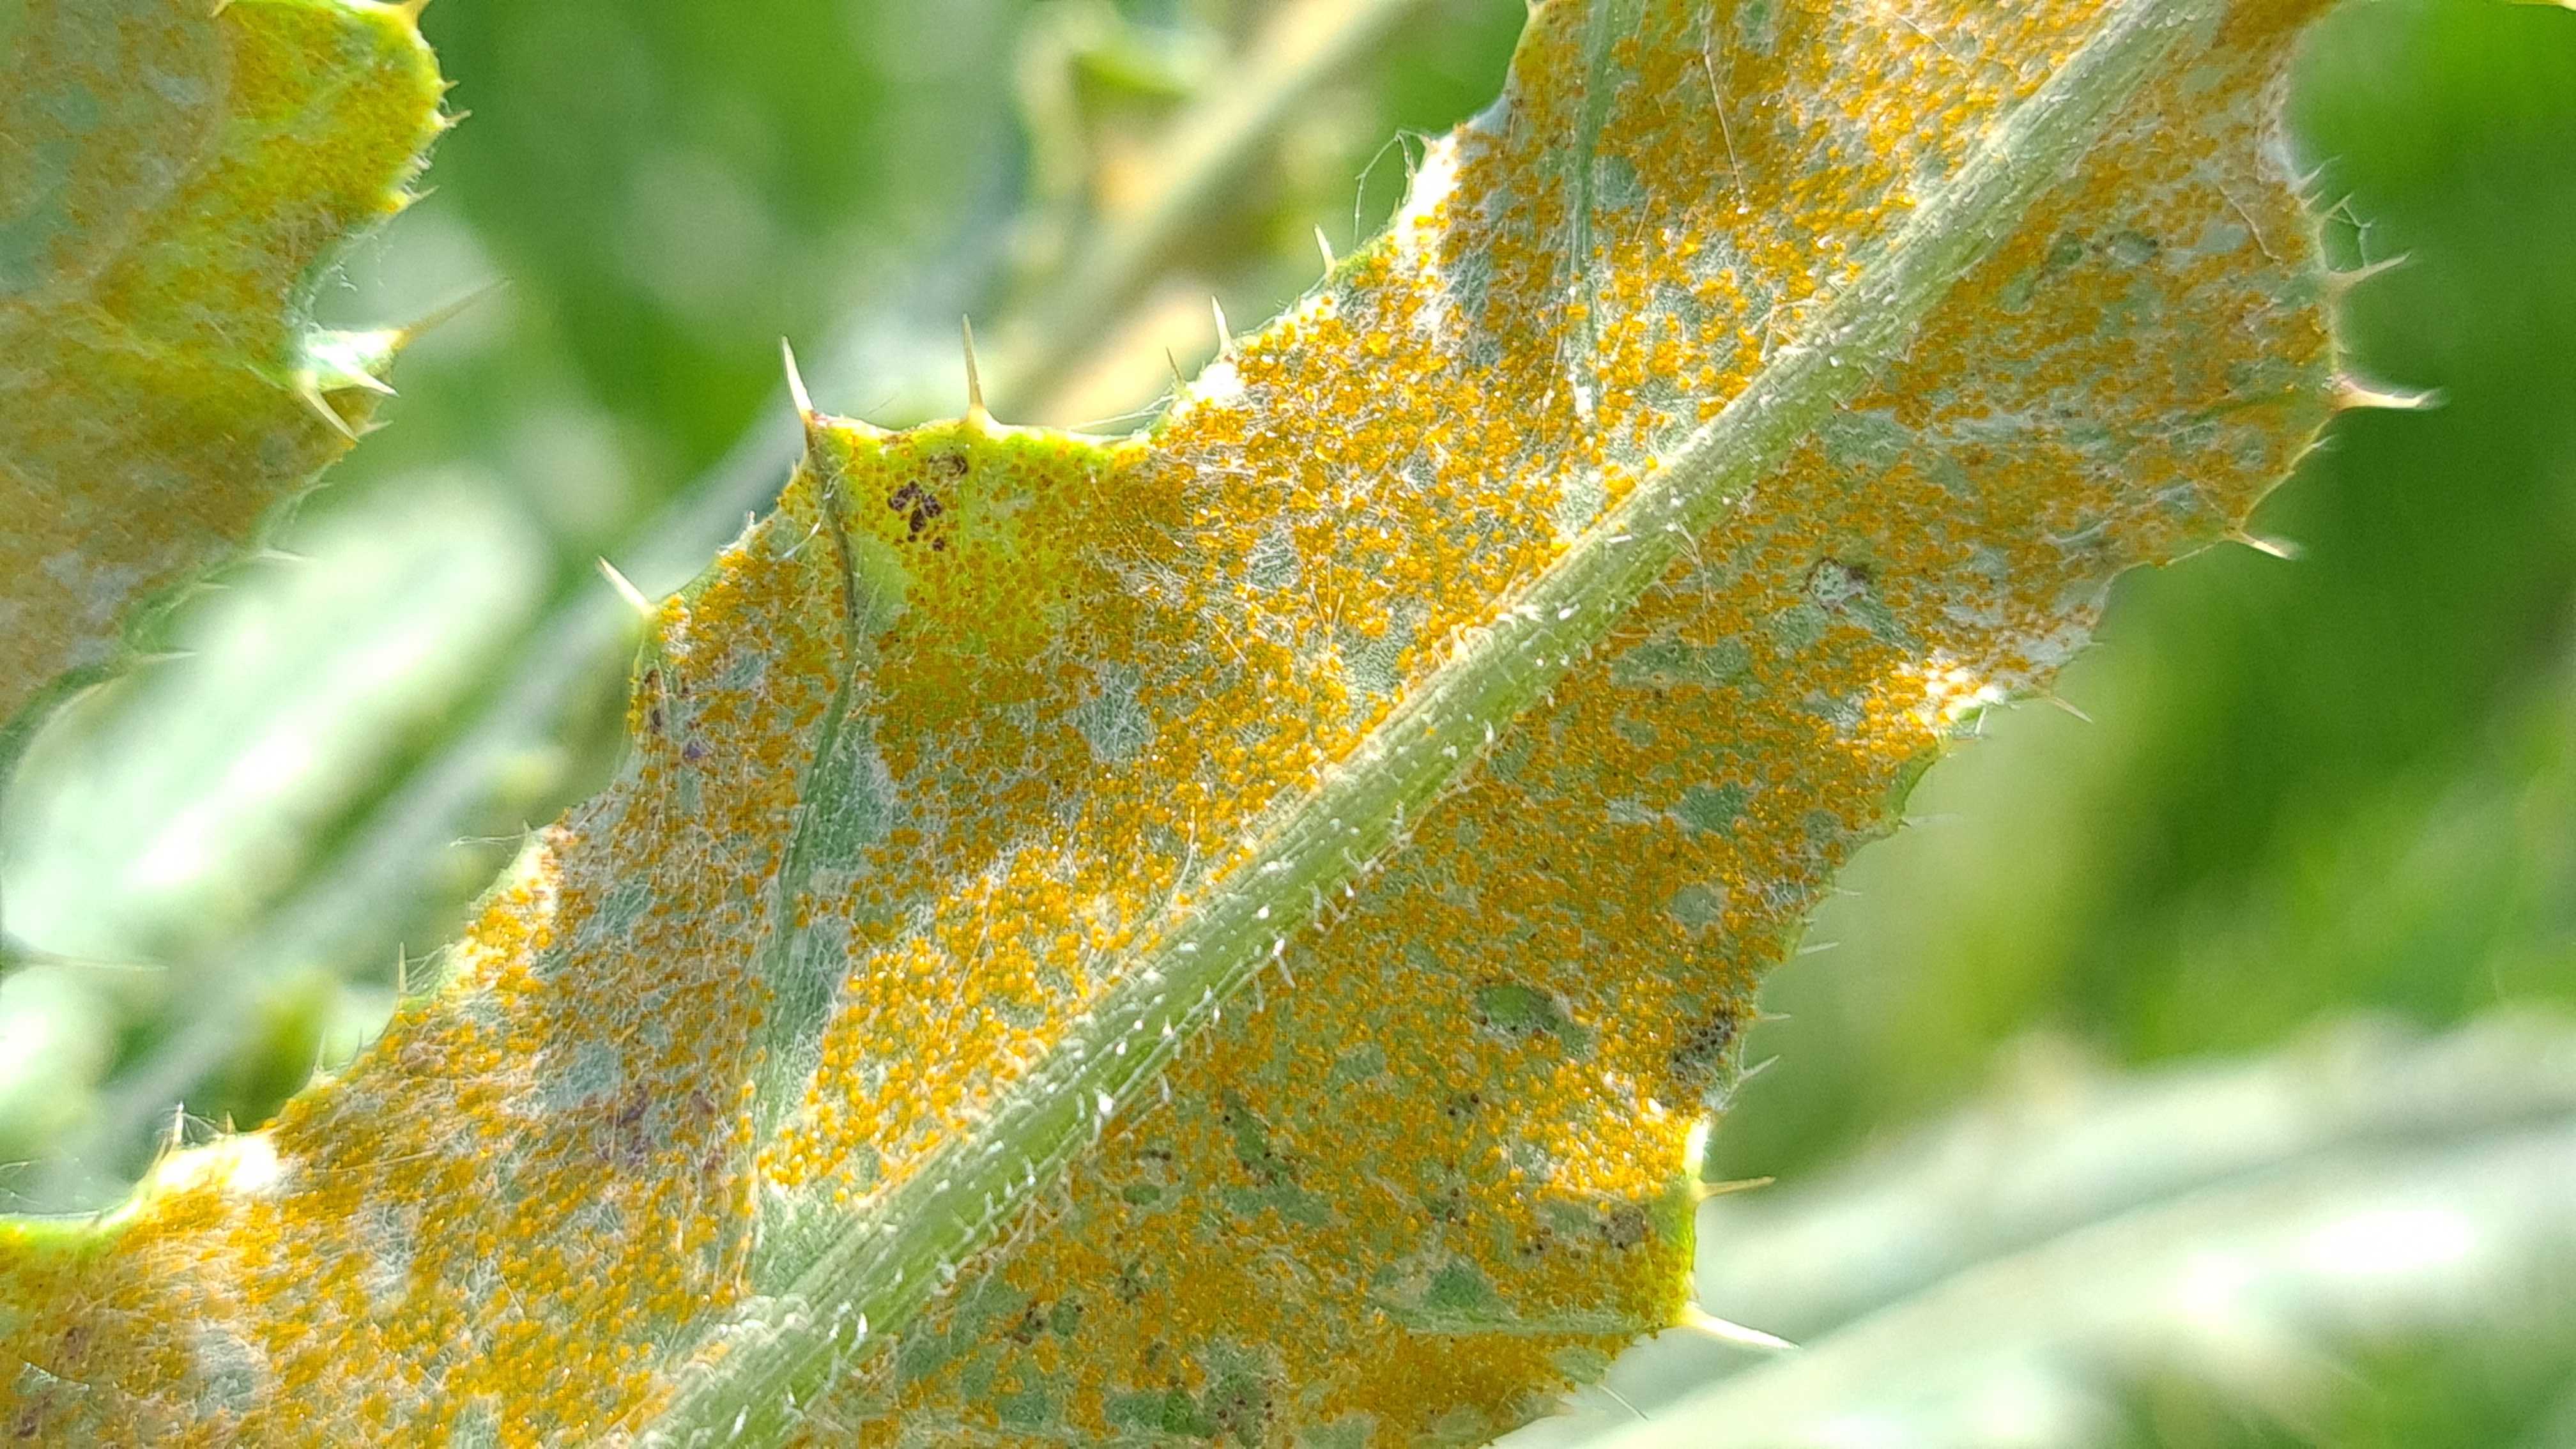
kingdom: Fungi
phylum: Basidiomycota
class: Pucciniomycetes
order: Pucciniales
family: Pucciniaceae
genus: Puccinia
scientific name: Puccinia suaveolens
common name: tidsel-tvecellerust
